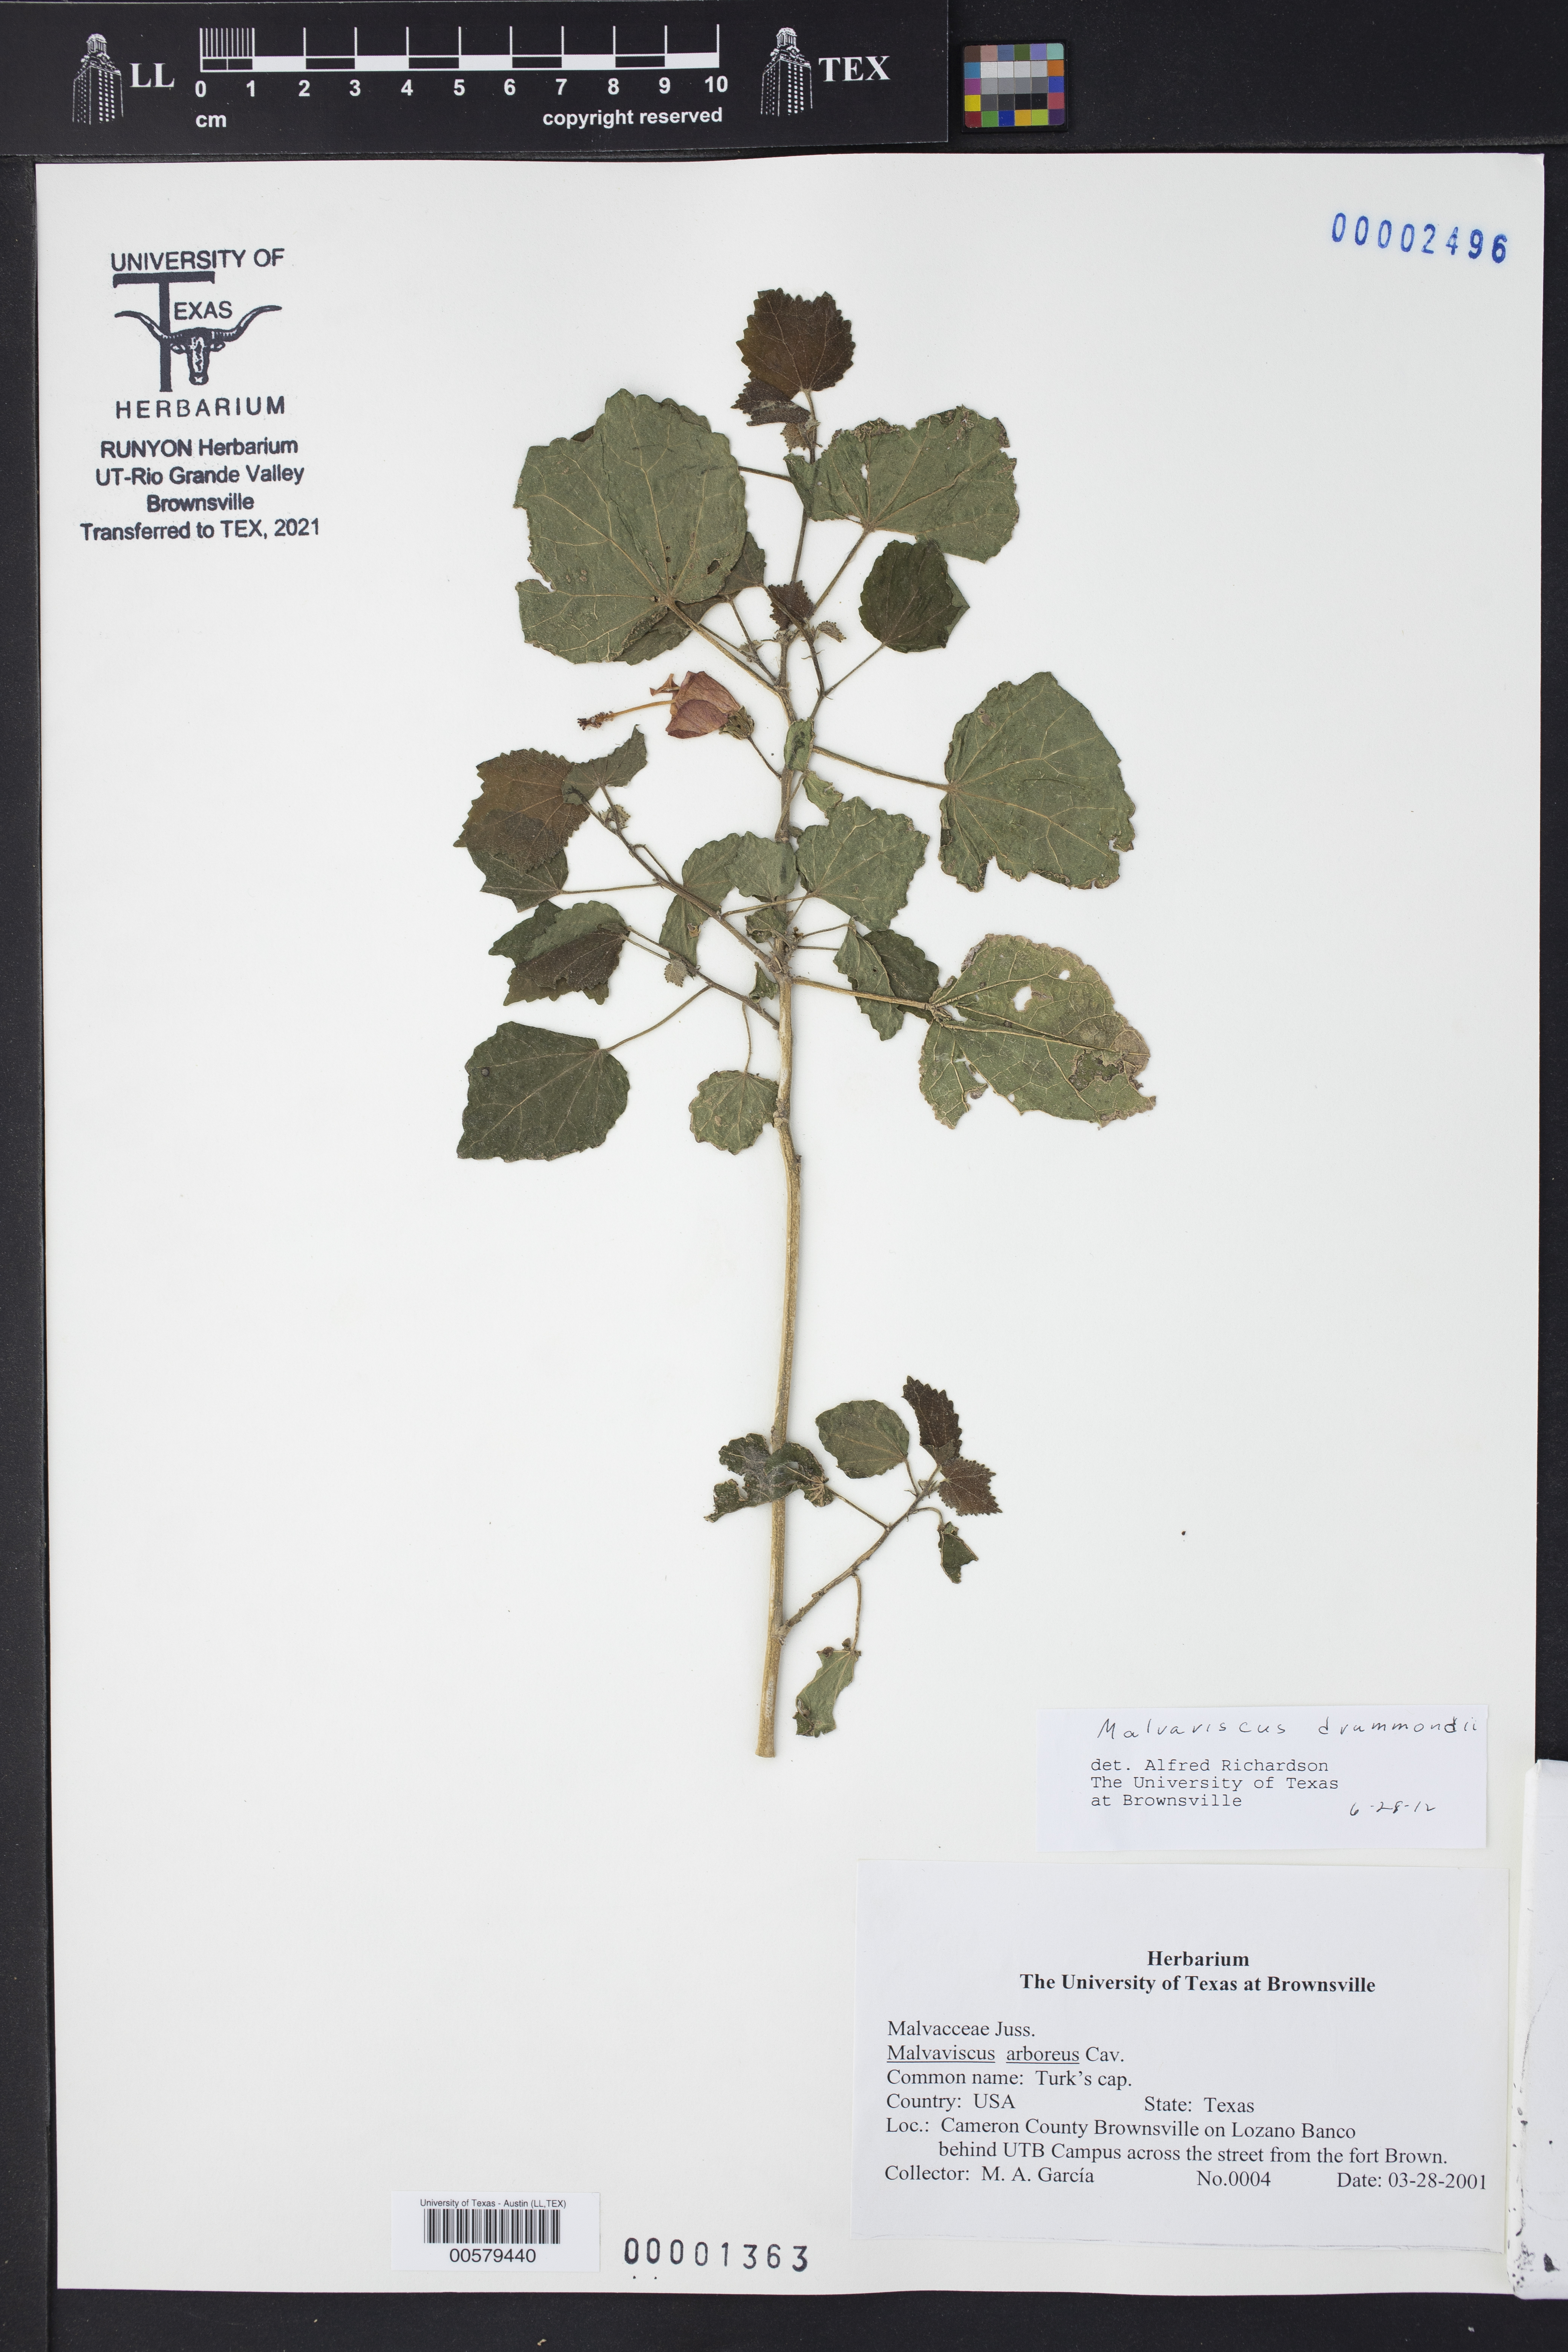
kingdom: Plantae
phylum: Tracheophyta
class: Magnoliopsida
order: Malvales
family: Malvaceae
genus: Malvaviscus
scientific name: Malvaviscus arboreus
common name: Wax mallow
